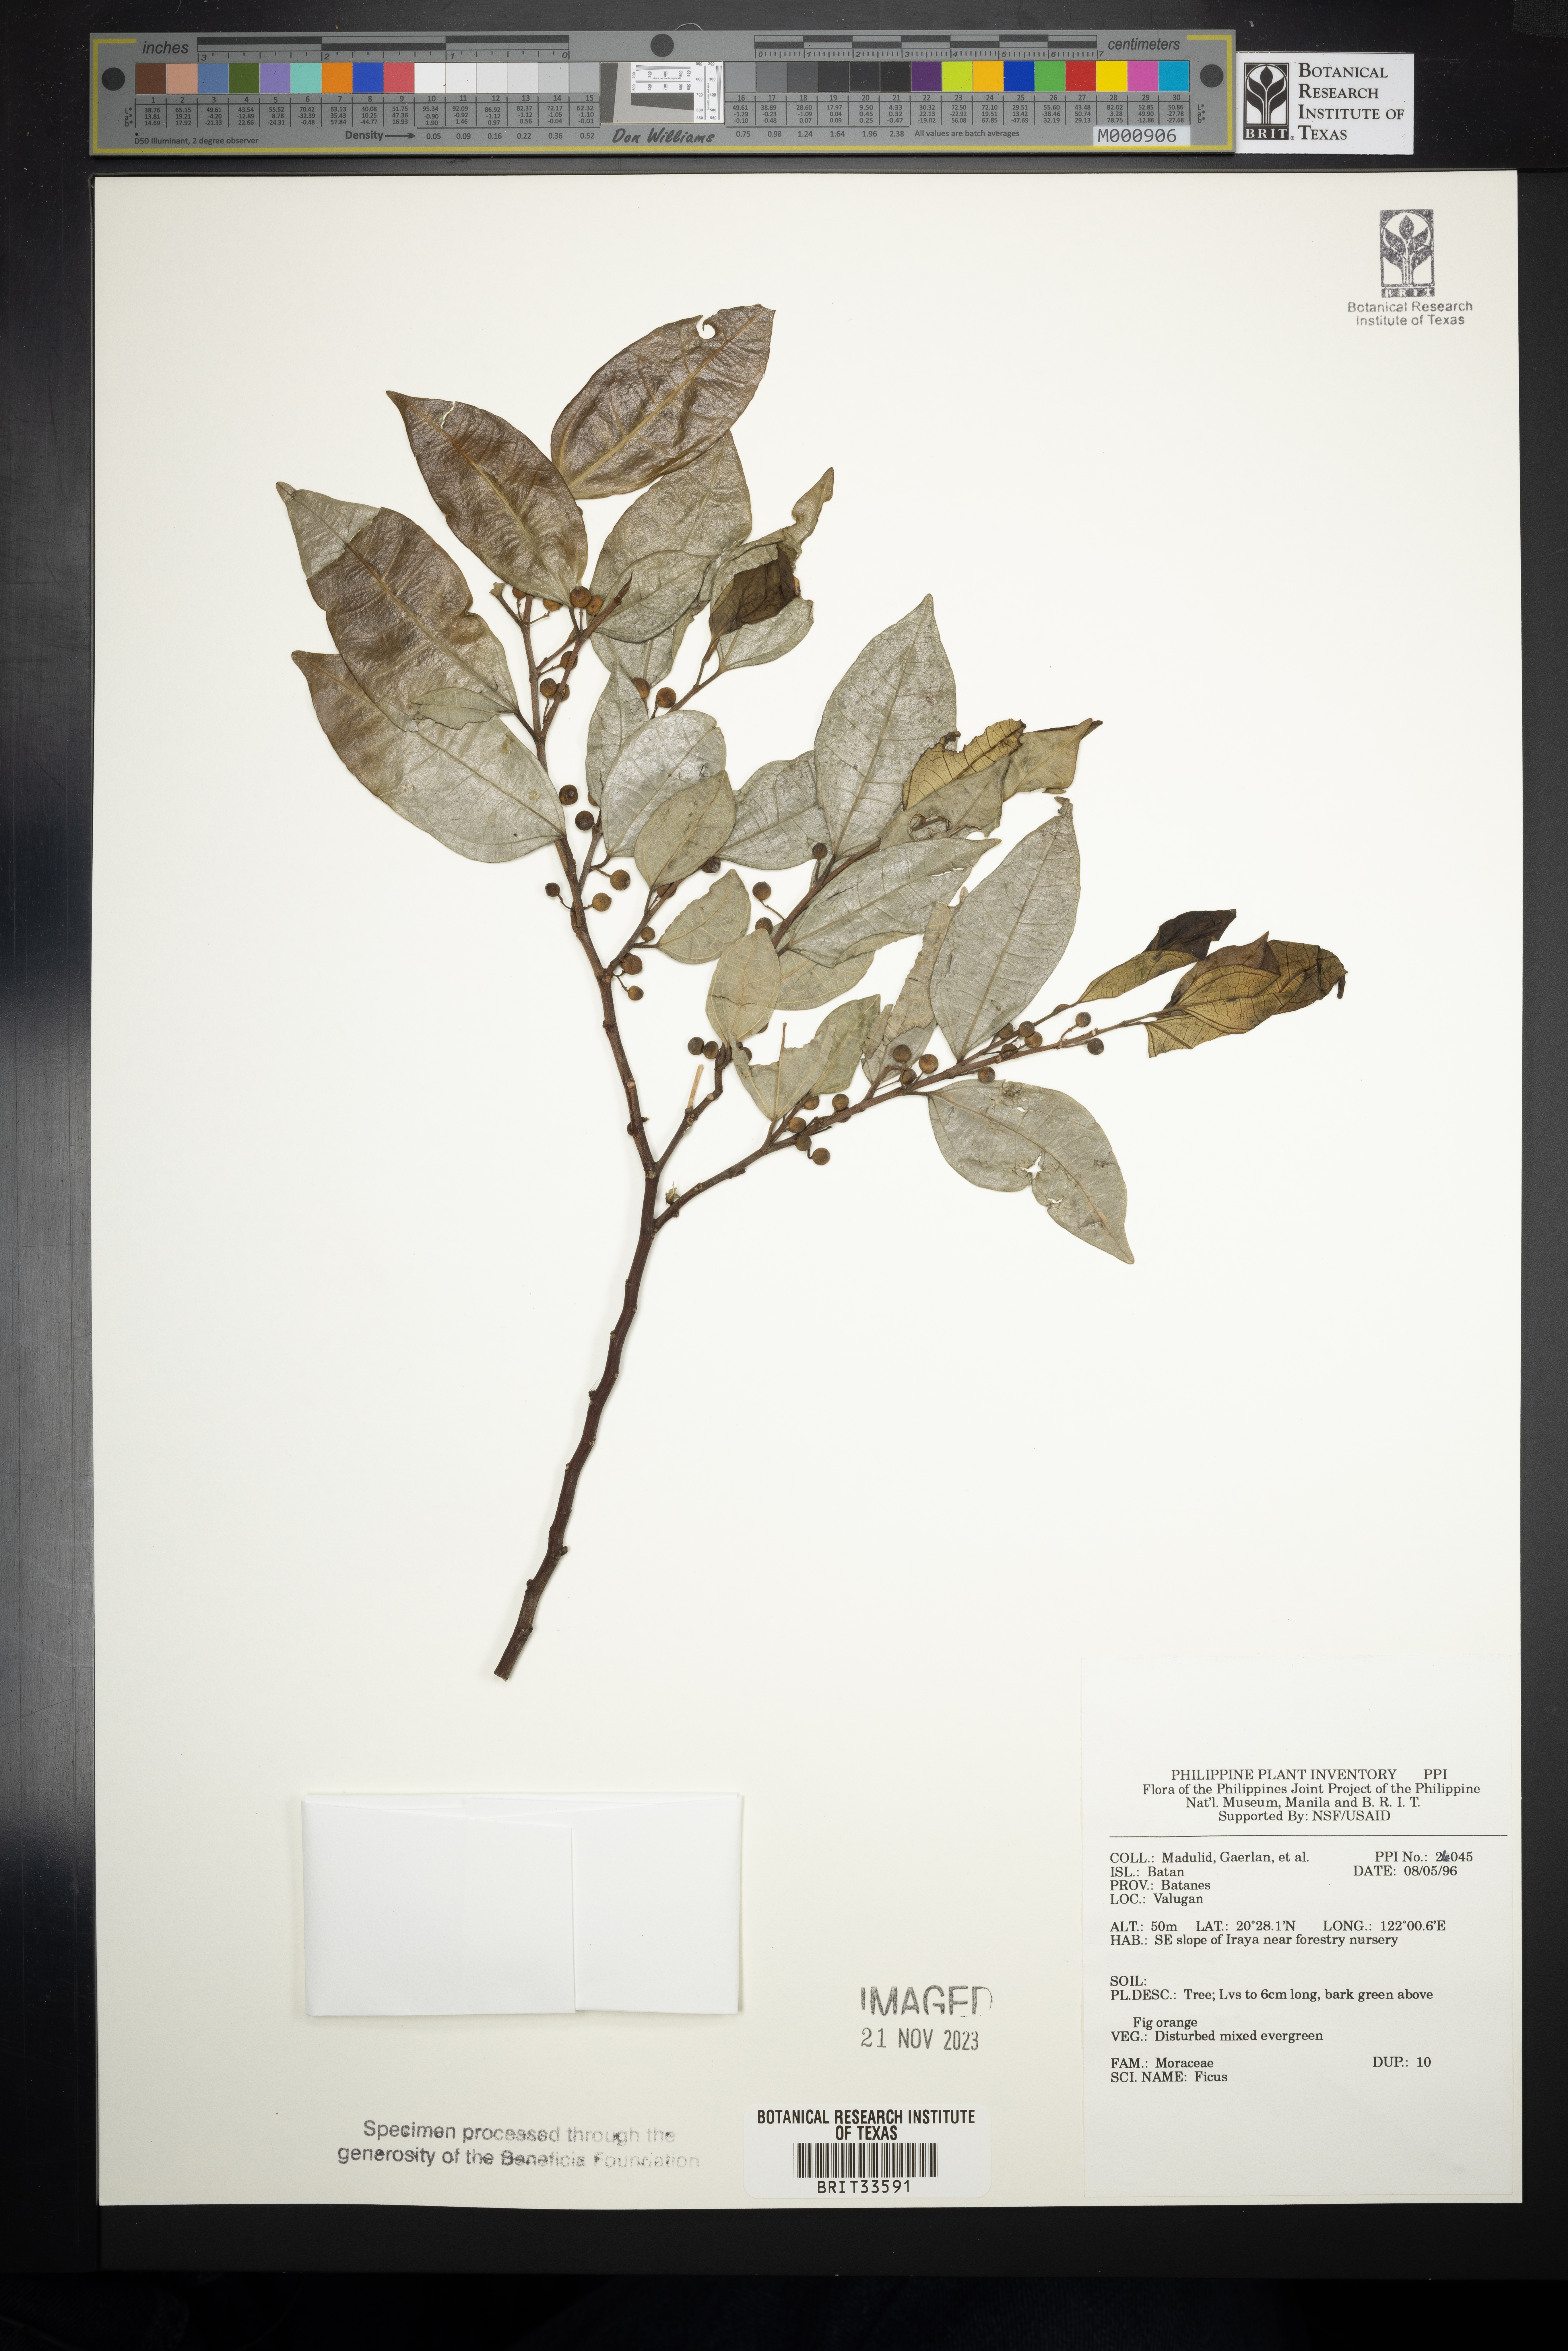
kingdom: Plantae
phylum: Tracheophyta
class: Magnoliopsida
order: Rosales
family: Moraceae
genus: Ficus
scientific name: Ficus
